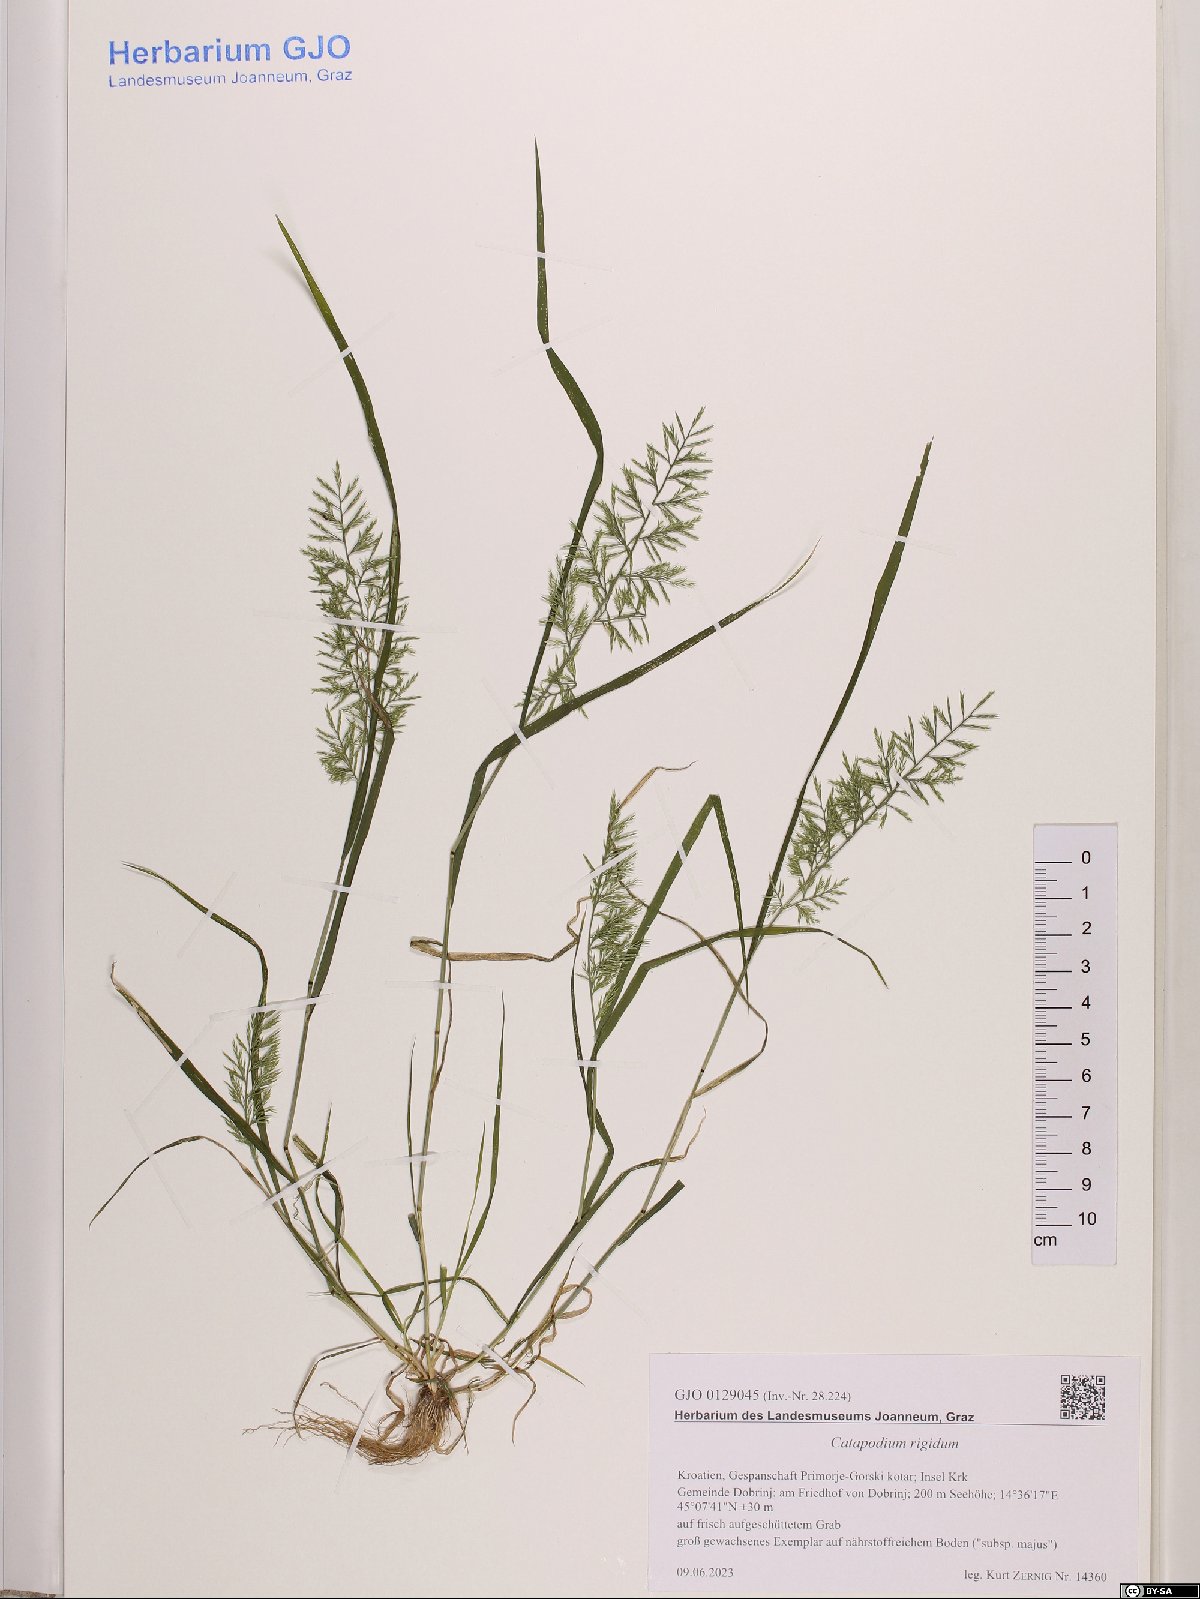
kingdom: Plantae
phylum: Tracheophyta
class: Liliopsida
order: Poales
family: Poaceae
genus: Catapodium
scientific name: Catapodium rigidum
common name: Fern-grass
